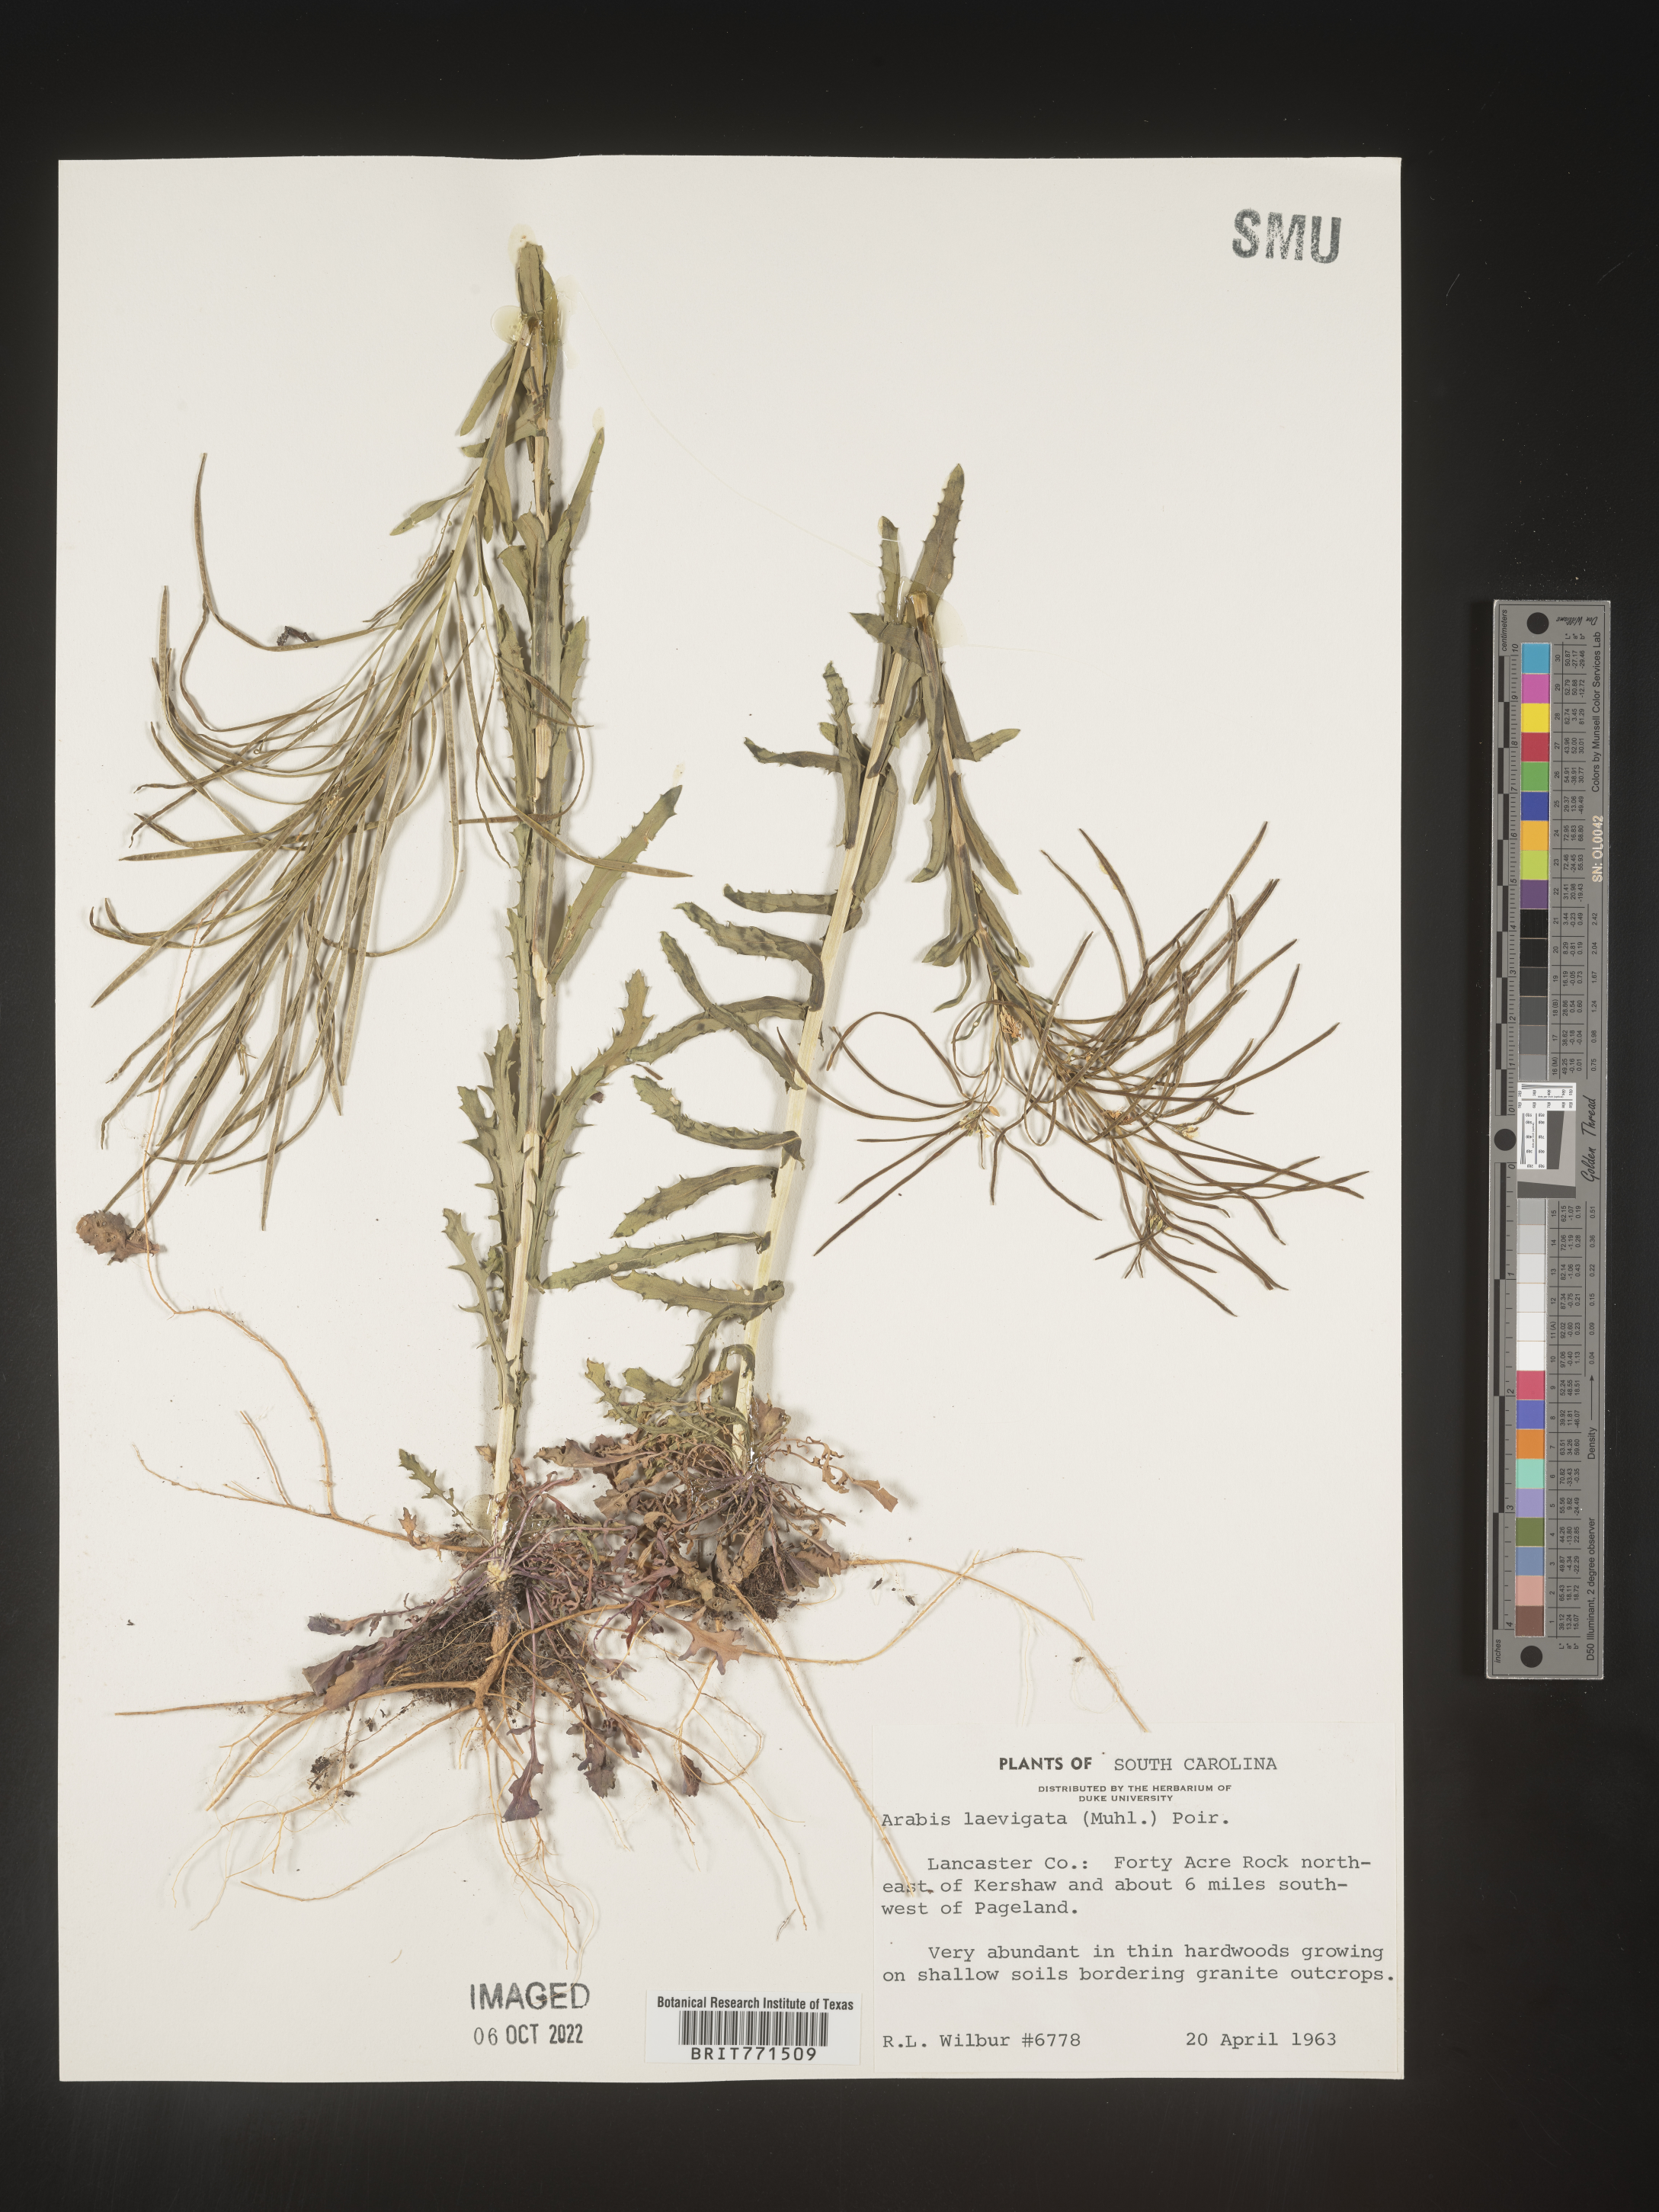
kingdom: Plantae
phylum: Tracheophyta
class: Magnoliopsida
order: Brassicales
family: Brassicaceae
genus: Arabis
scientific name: Arabis laevigata
